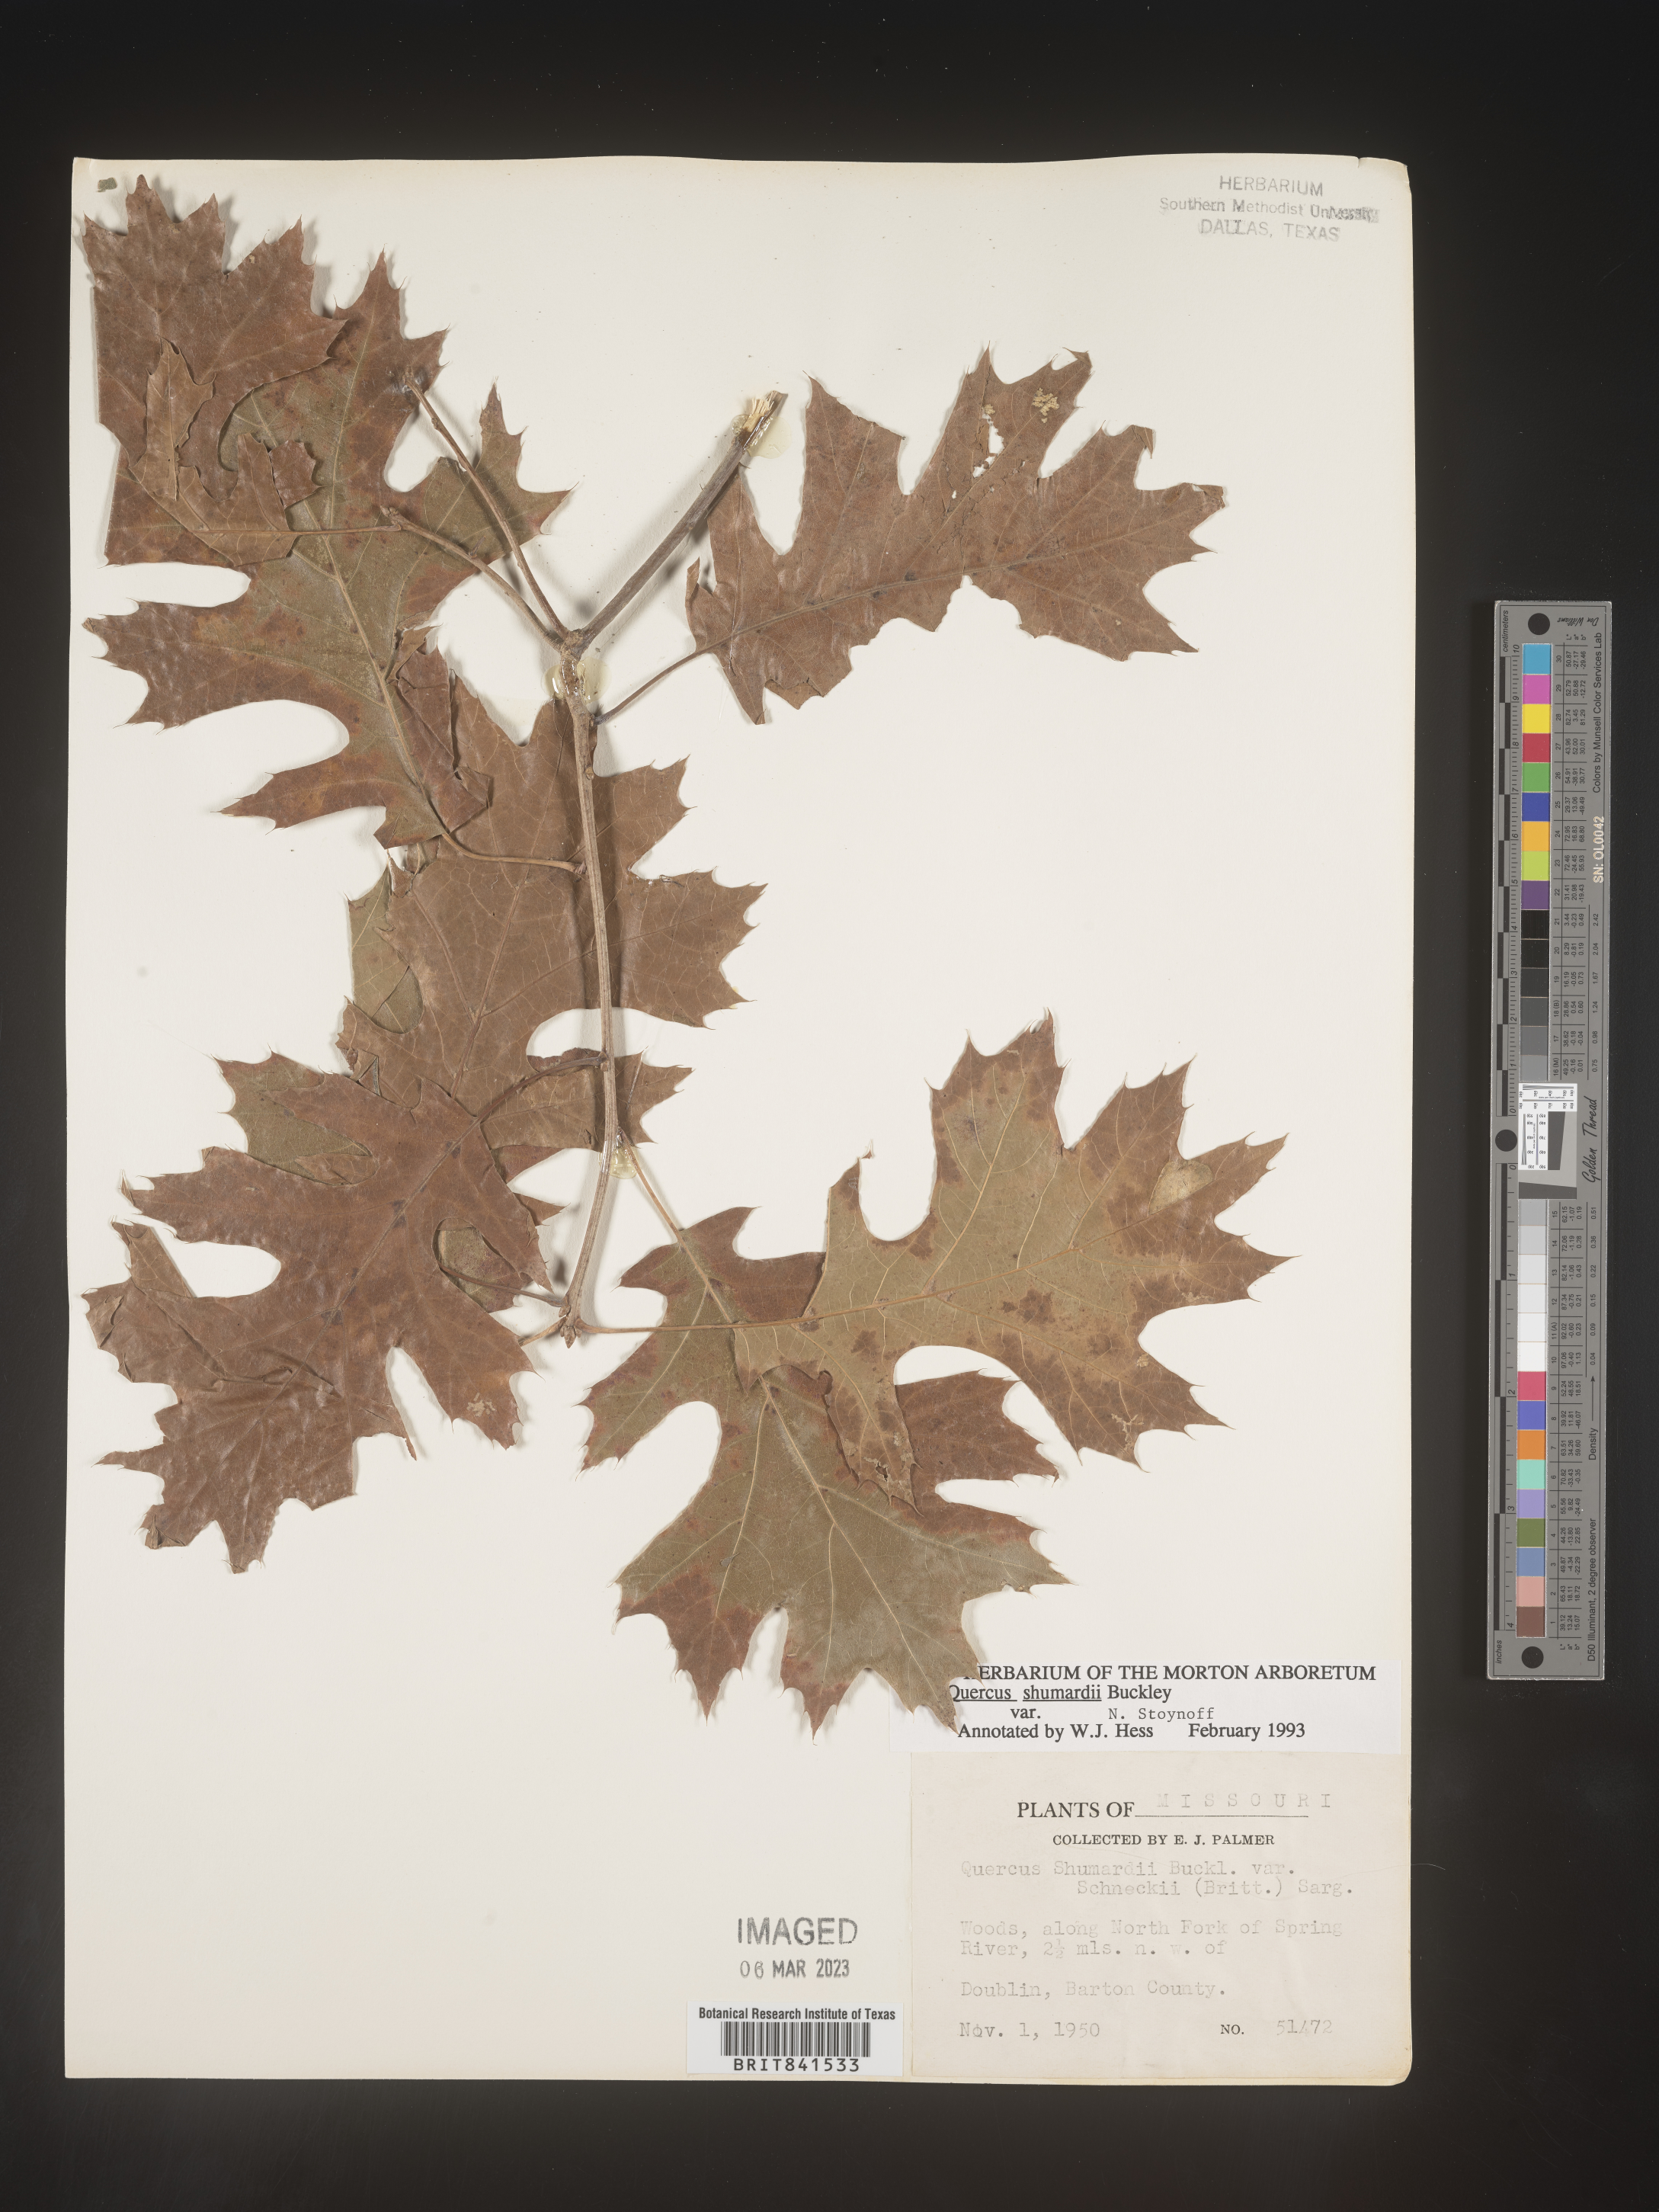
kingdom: Plantae
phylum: Tracheophyta
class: Magnoliopsida
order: Fagales
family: Fagaceae
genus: Quercus
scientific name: Quercus shumardii
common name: Shumard oak
